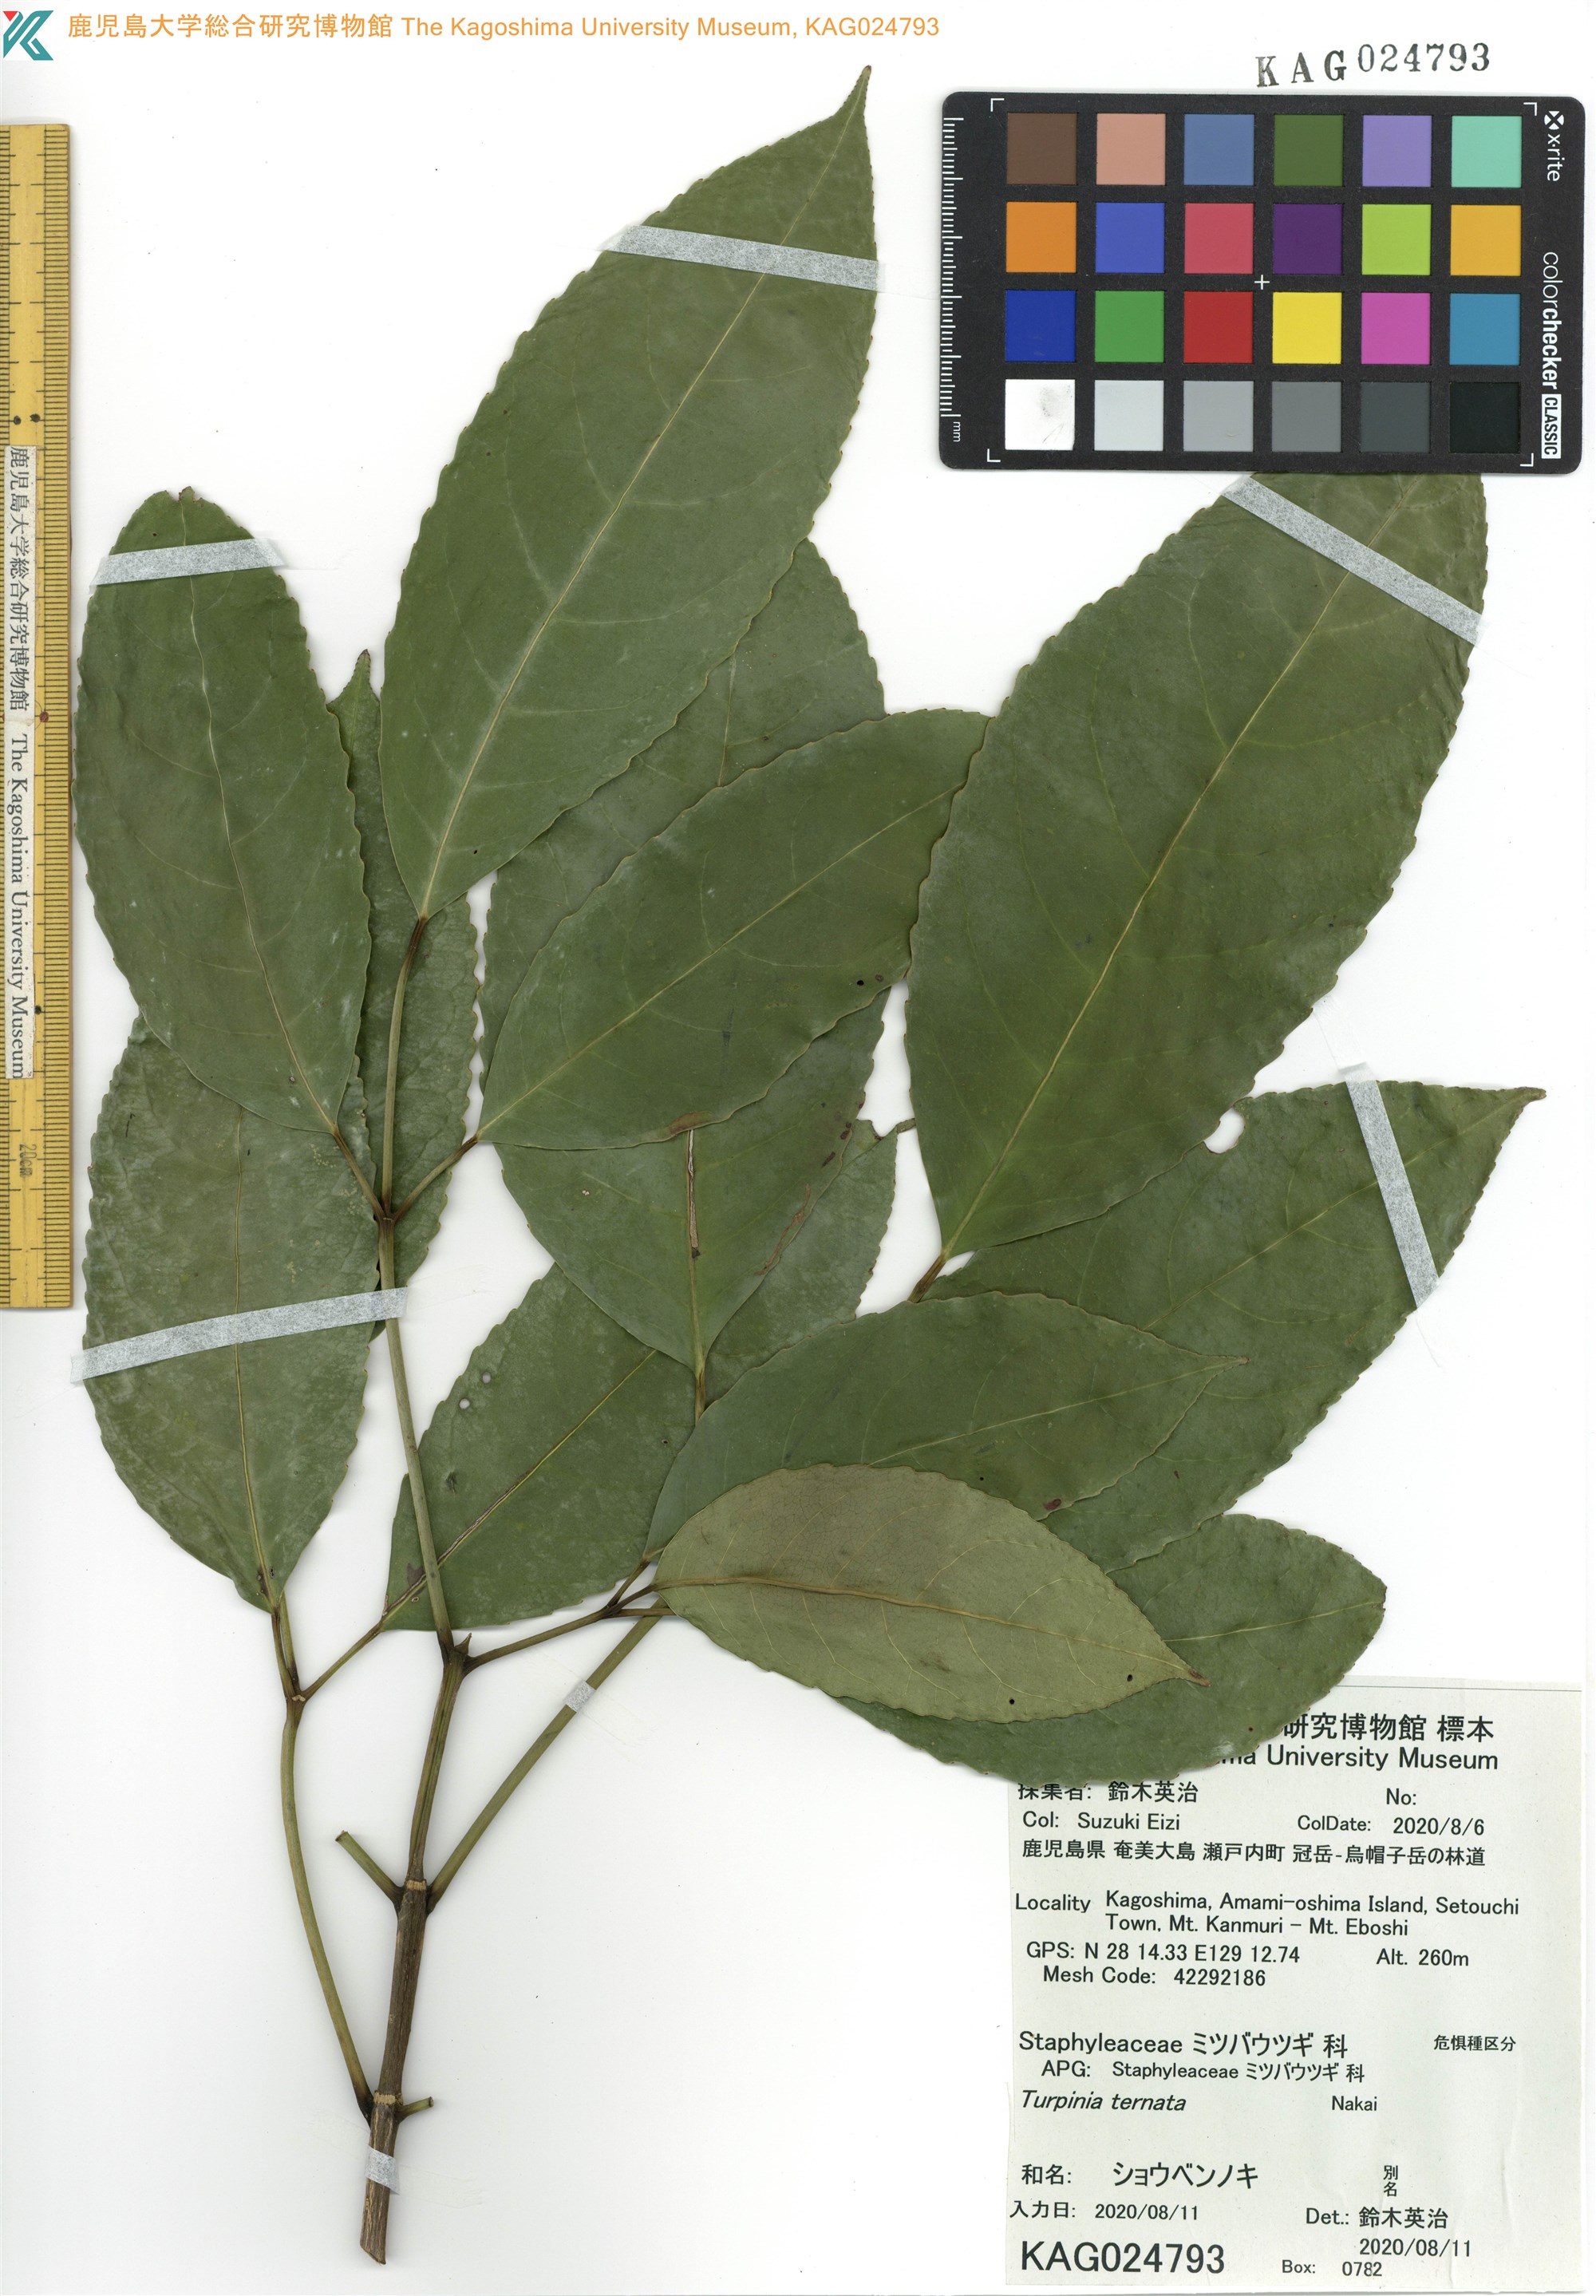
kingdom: Plantae
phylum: Tracheophyta
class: Magnoliopsida
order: Crossosomatales
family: Staphyleaceae
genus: Turpinia
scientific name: Turpinia ternata
